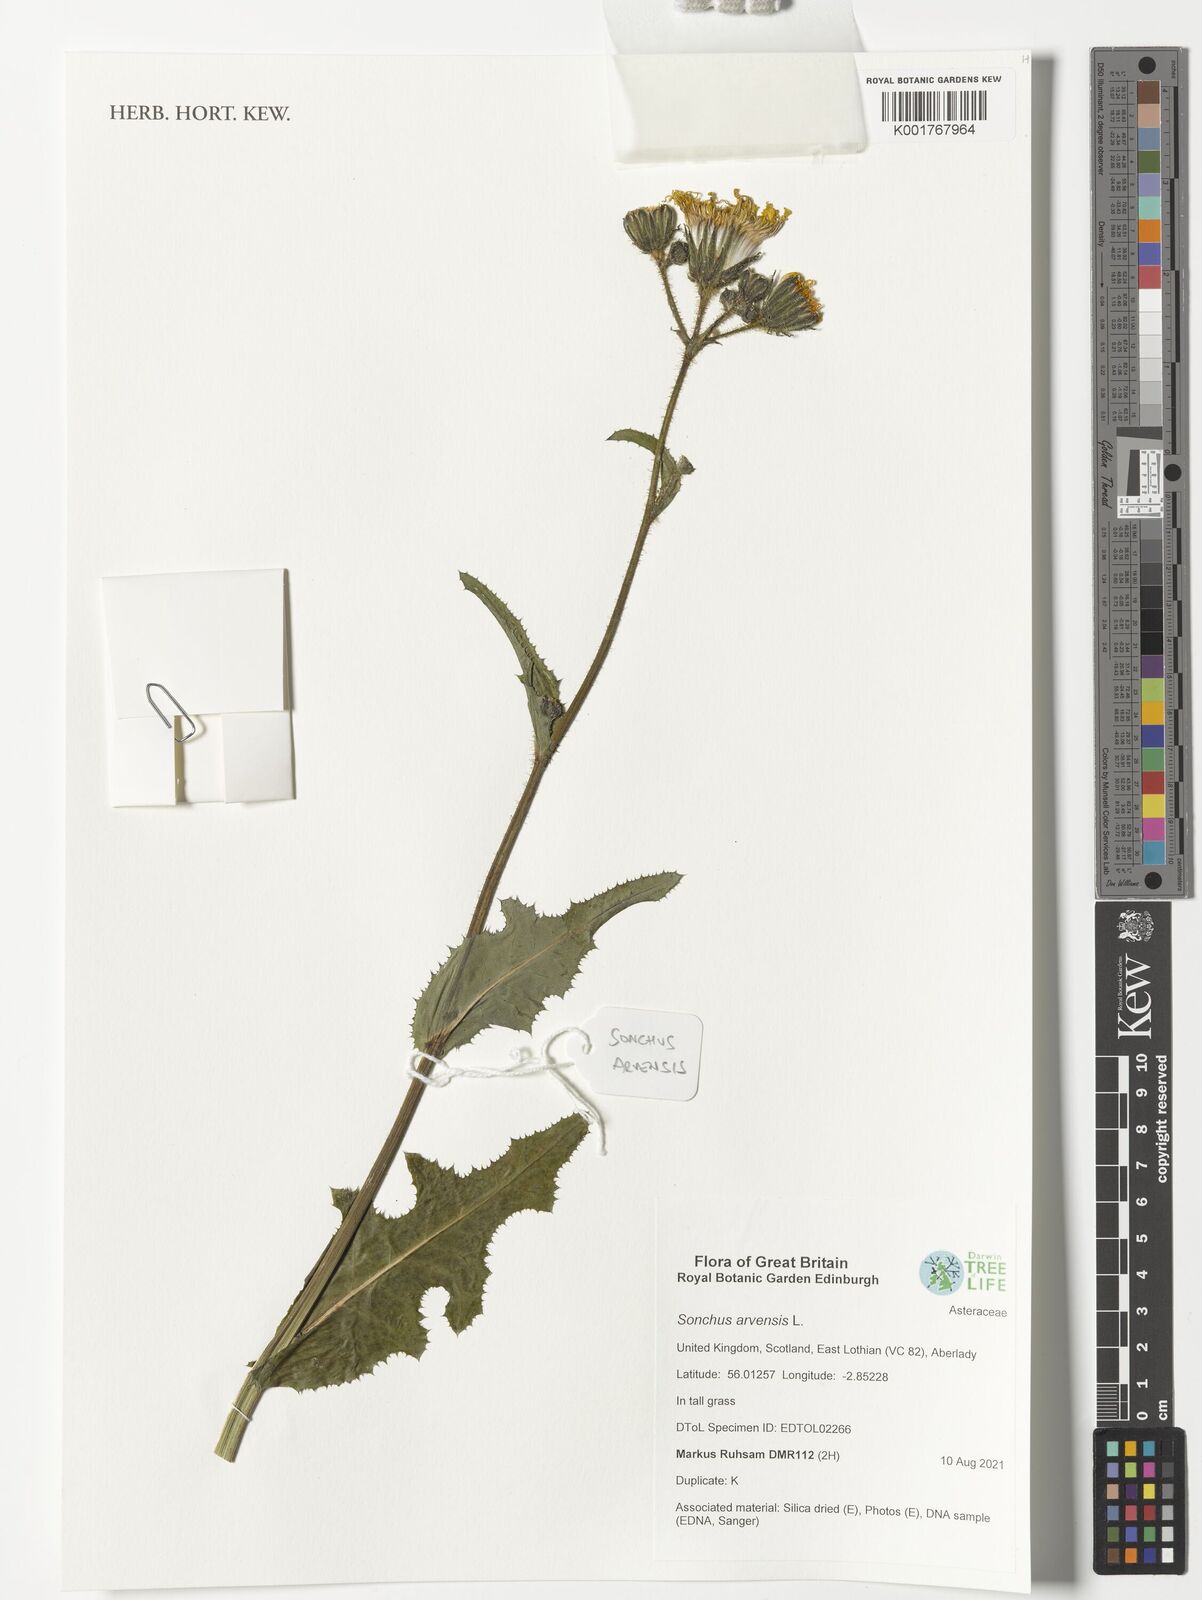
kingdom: Plantae
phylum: Tracheophyta
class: Magnoliopsida
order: Asterales
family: Asteraceae
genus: Sonchus
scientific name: Sonchus arvensis
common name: Perennial sow-thistle
